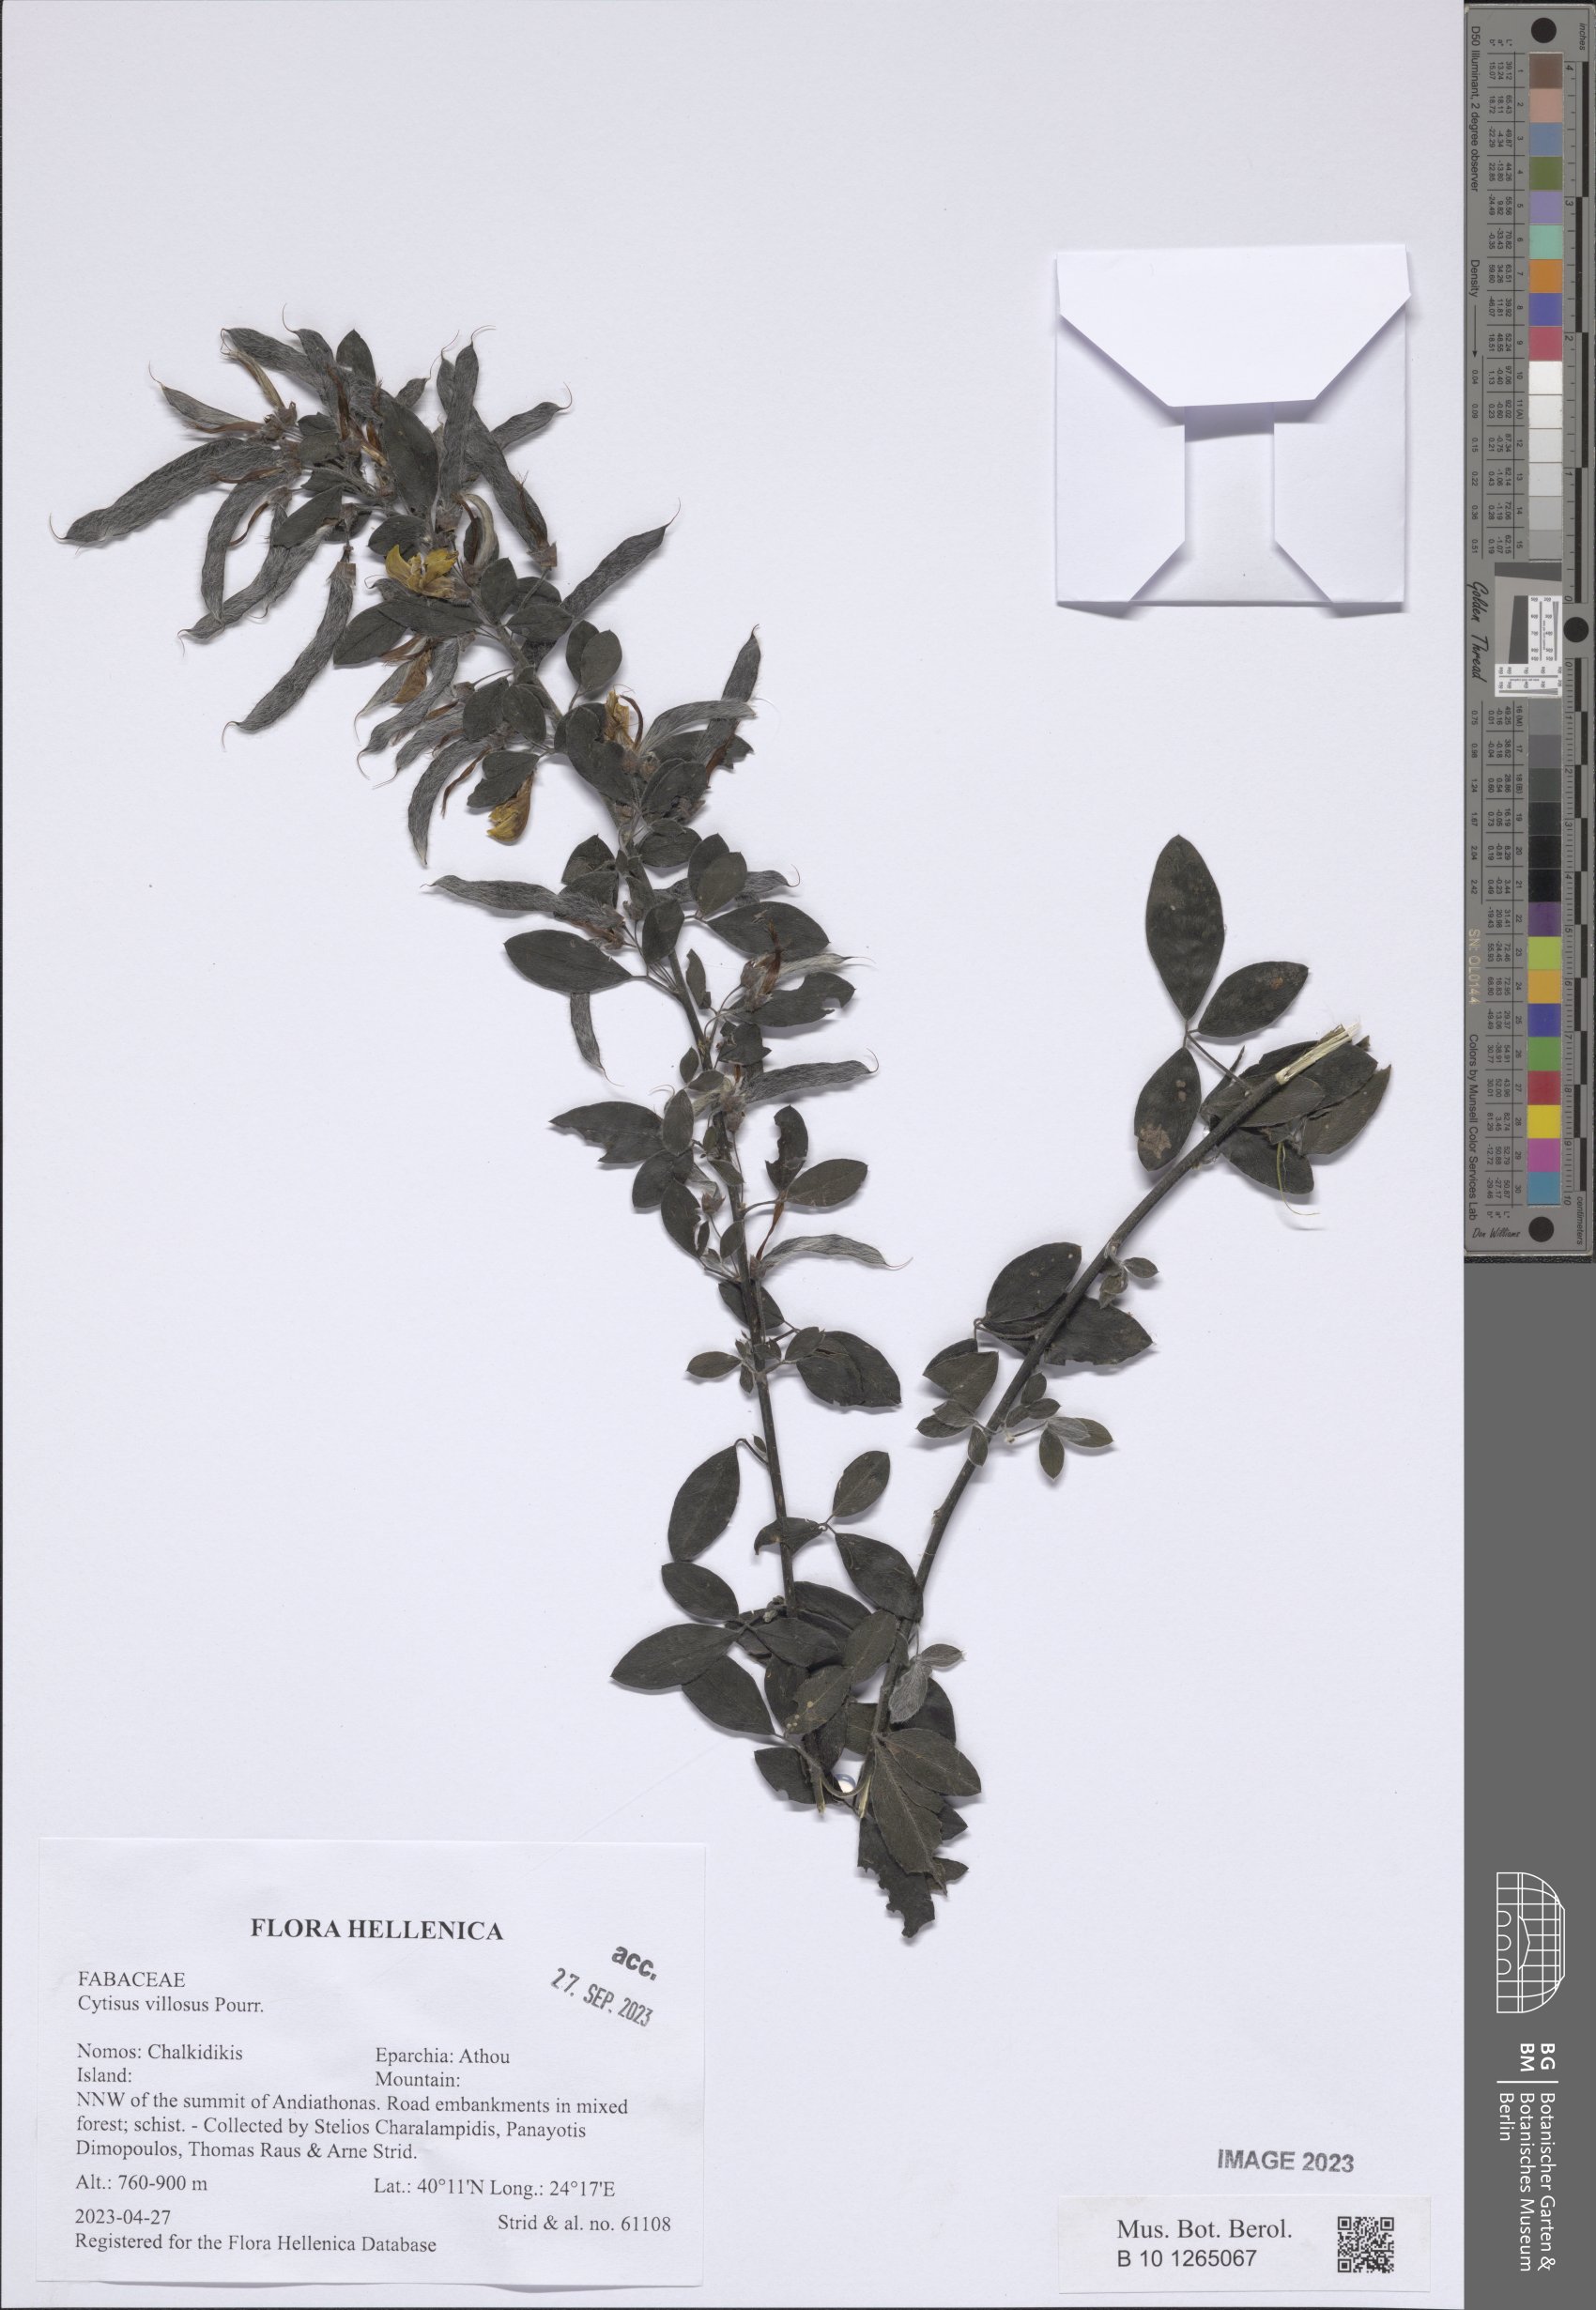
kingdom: Plantae
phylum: Tracheophyta
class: Magnoliopsida
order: Fabales
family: Fabaceae
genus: Cytisus
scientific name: Cytisus villosus
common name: Hairybroom
